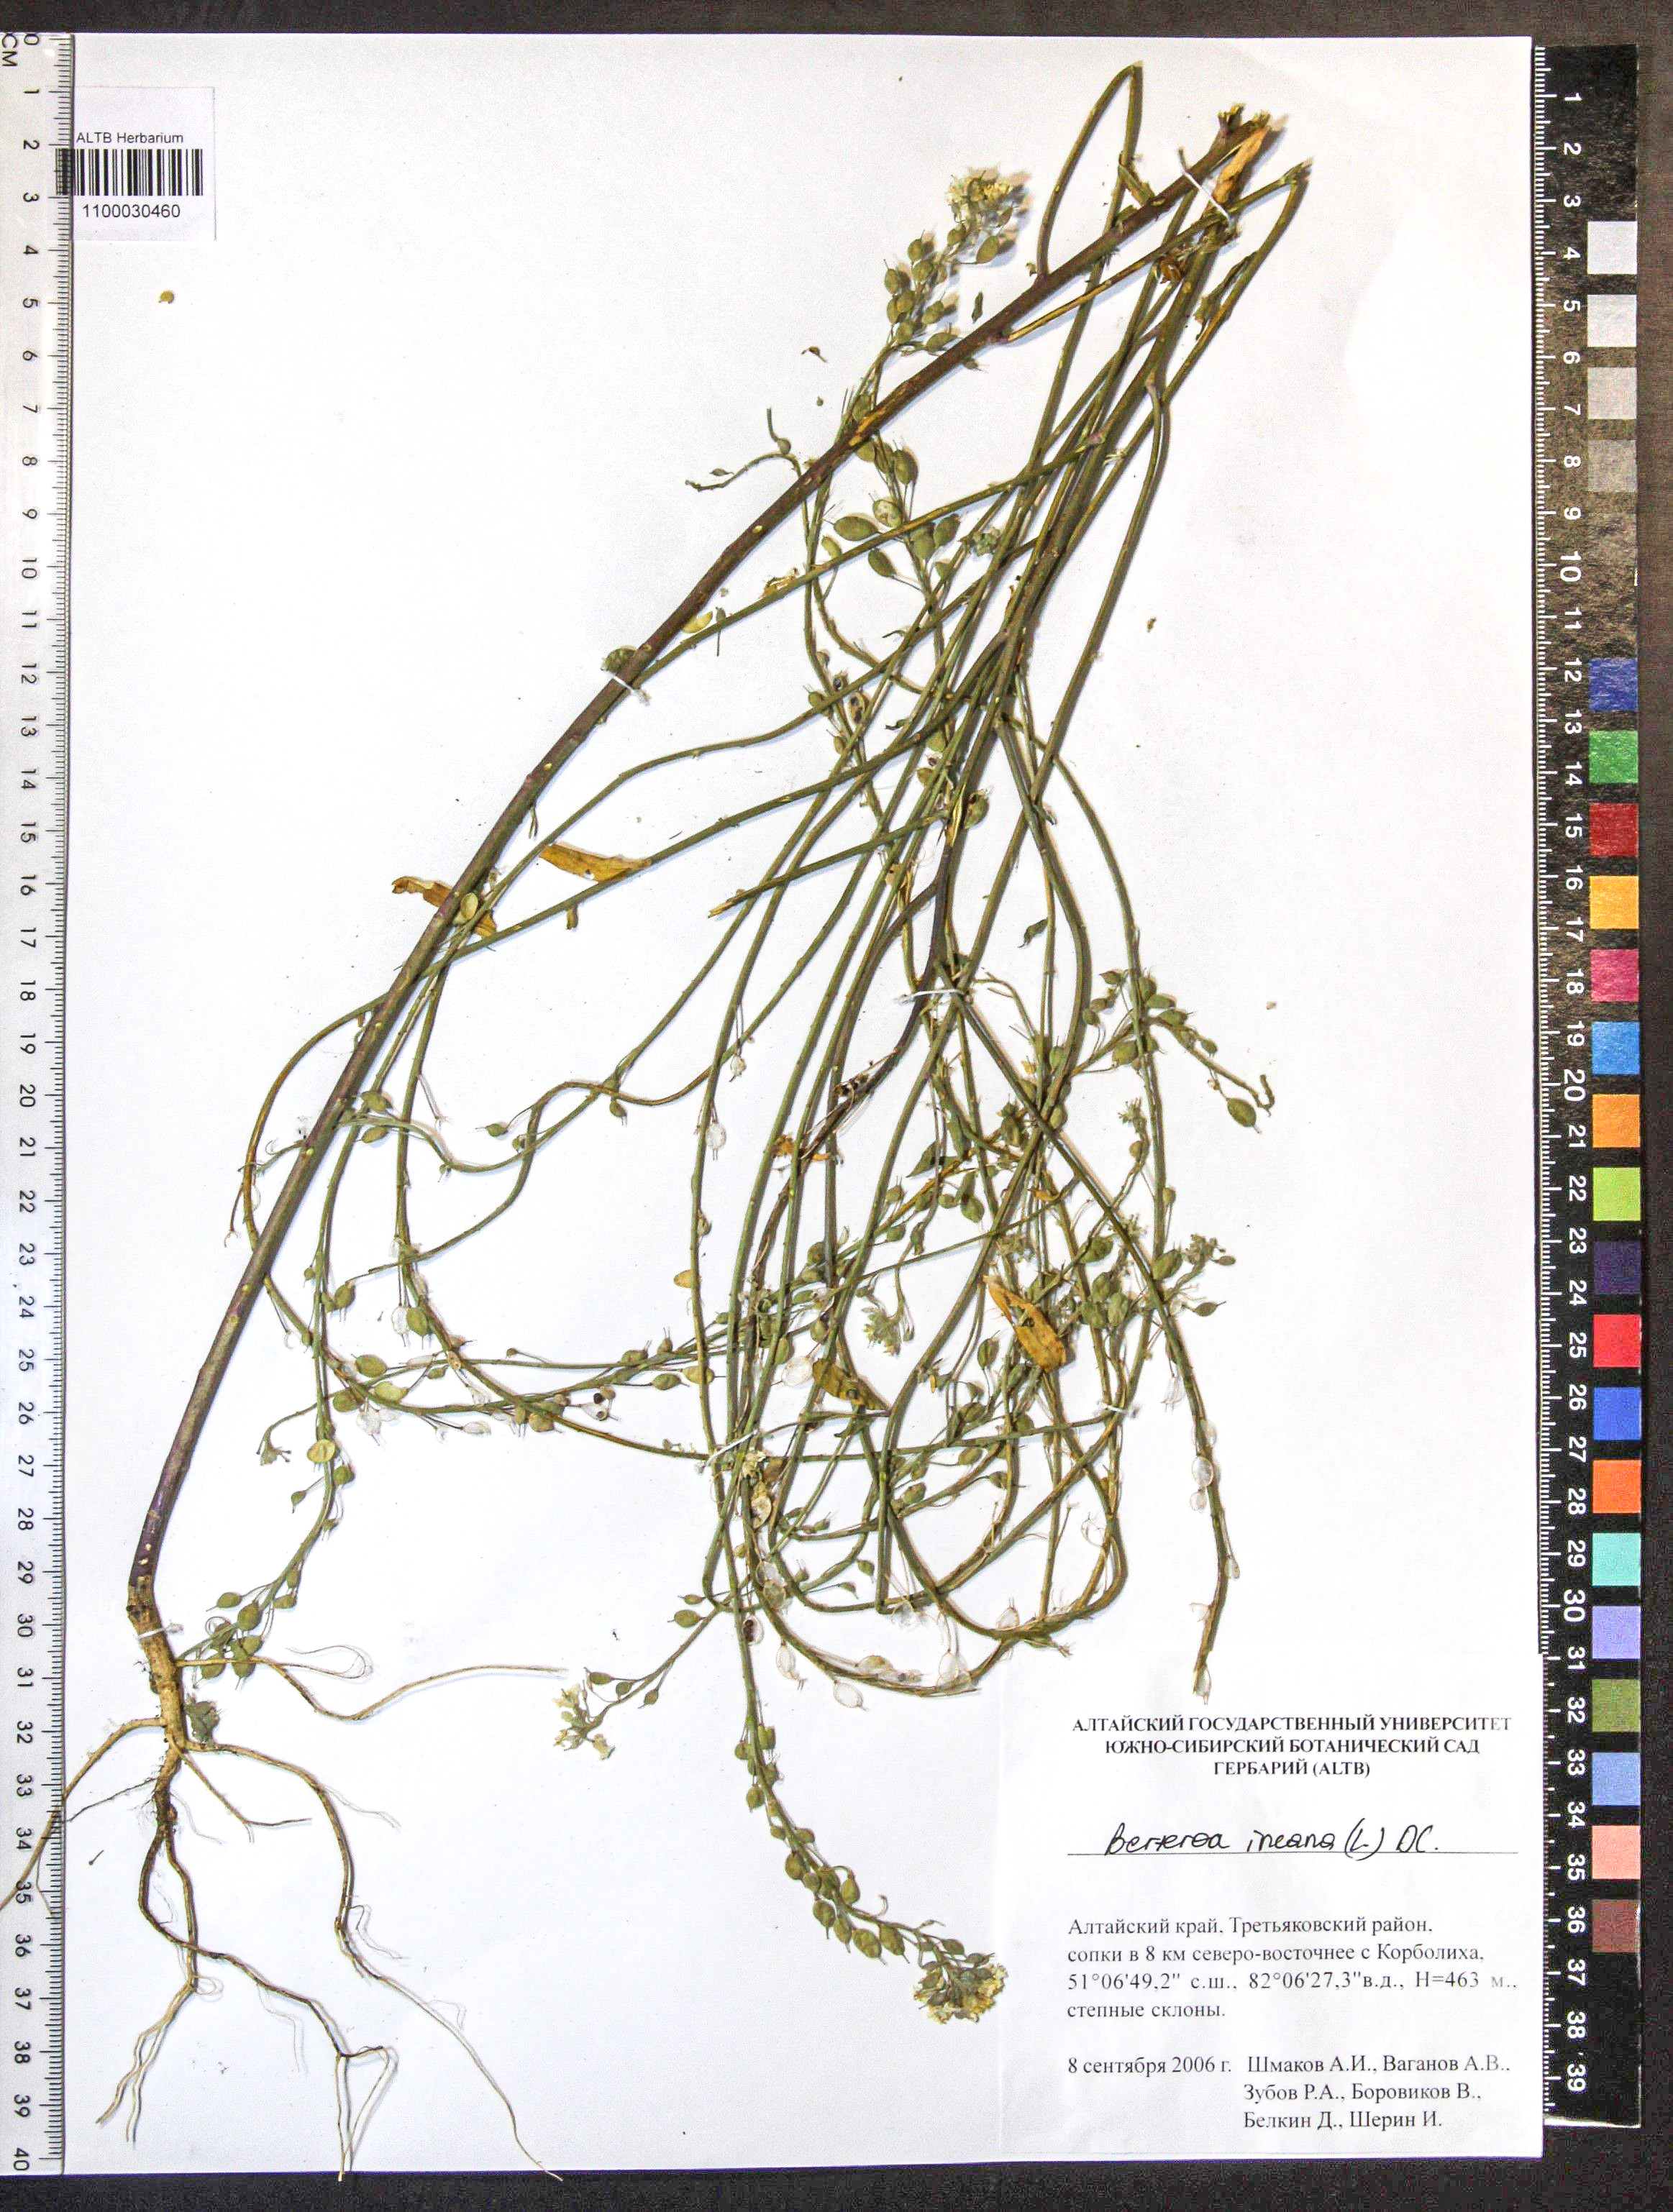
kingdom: Plantae
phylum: Tracheophyta
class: Magnoliopsida
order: Brassicales
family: Brassicaceae
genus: Berteroa
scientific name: Berteroa incana
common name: Hoary alison
